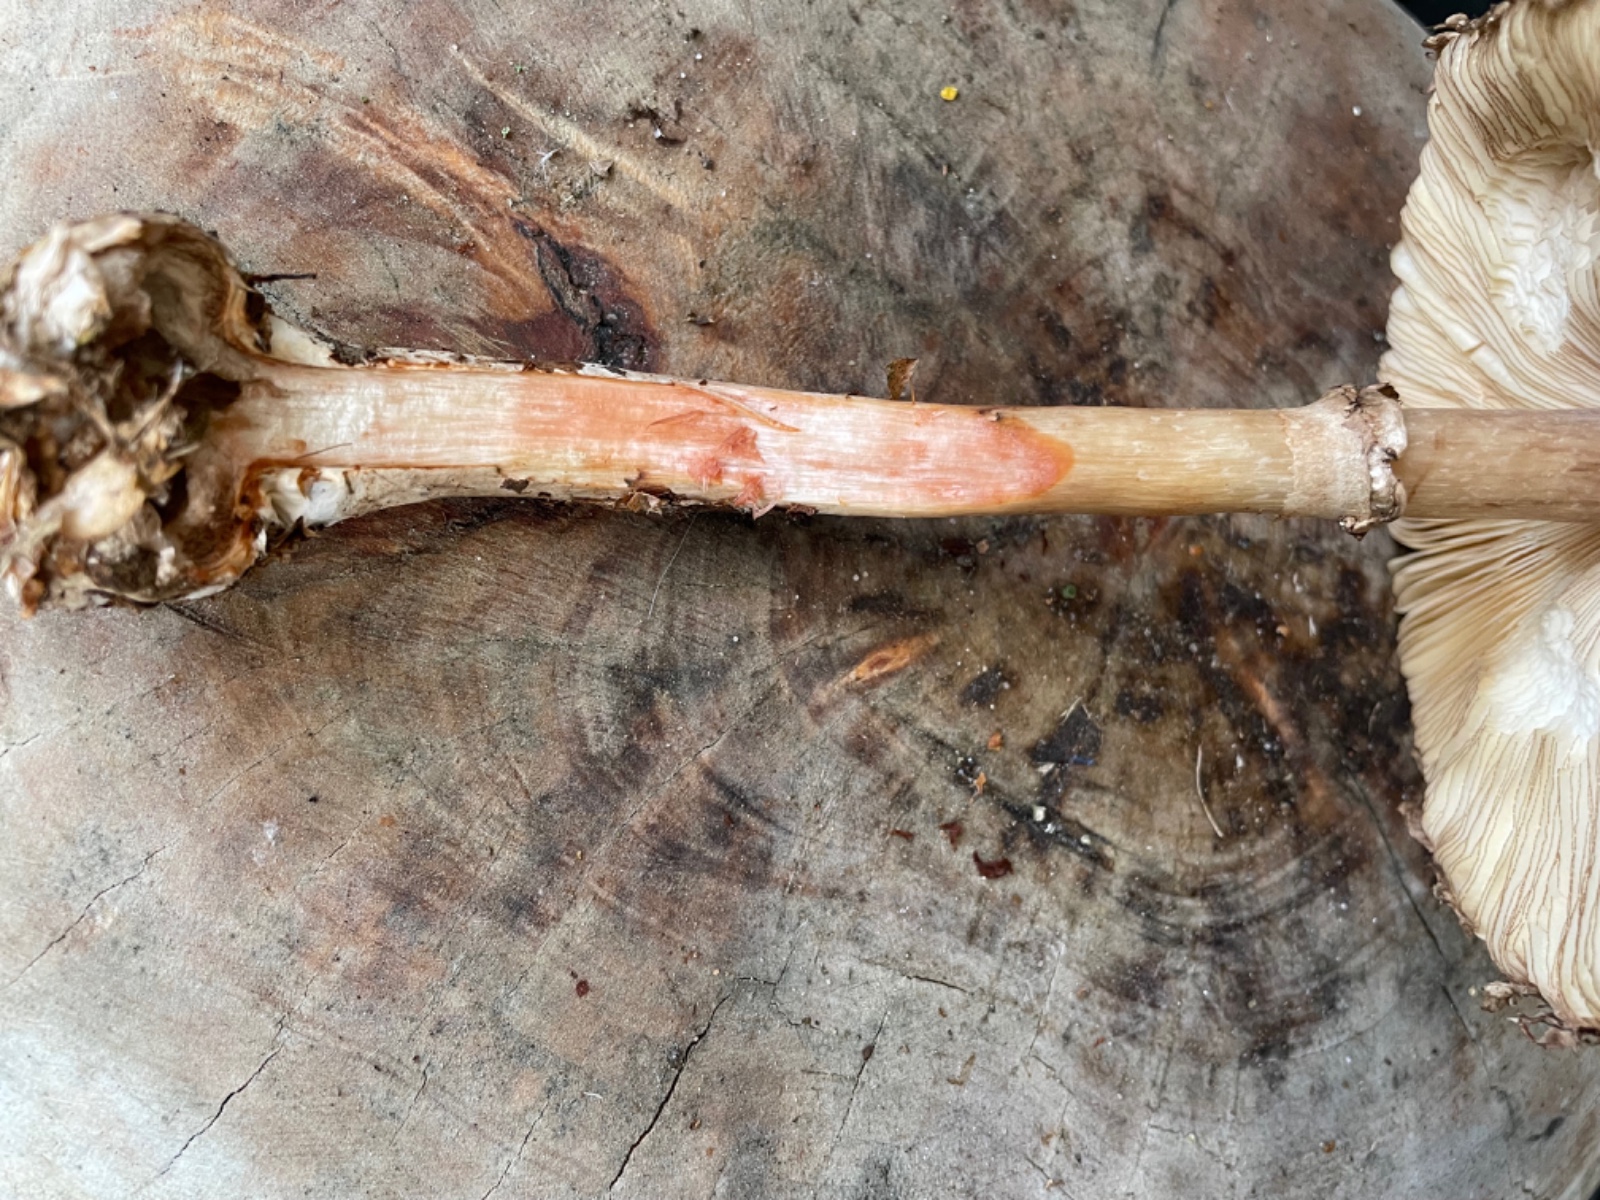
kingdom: Fungi
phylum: Basidiomycota
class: Agaricomycetes
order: Agaricales
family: Agaricaceae
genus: Chlorophyllum
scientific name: Chlorophyllum olivieri
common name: almindelig rabarberhat
